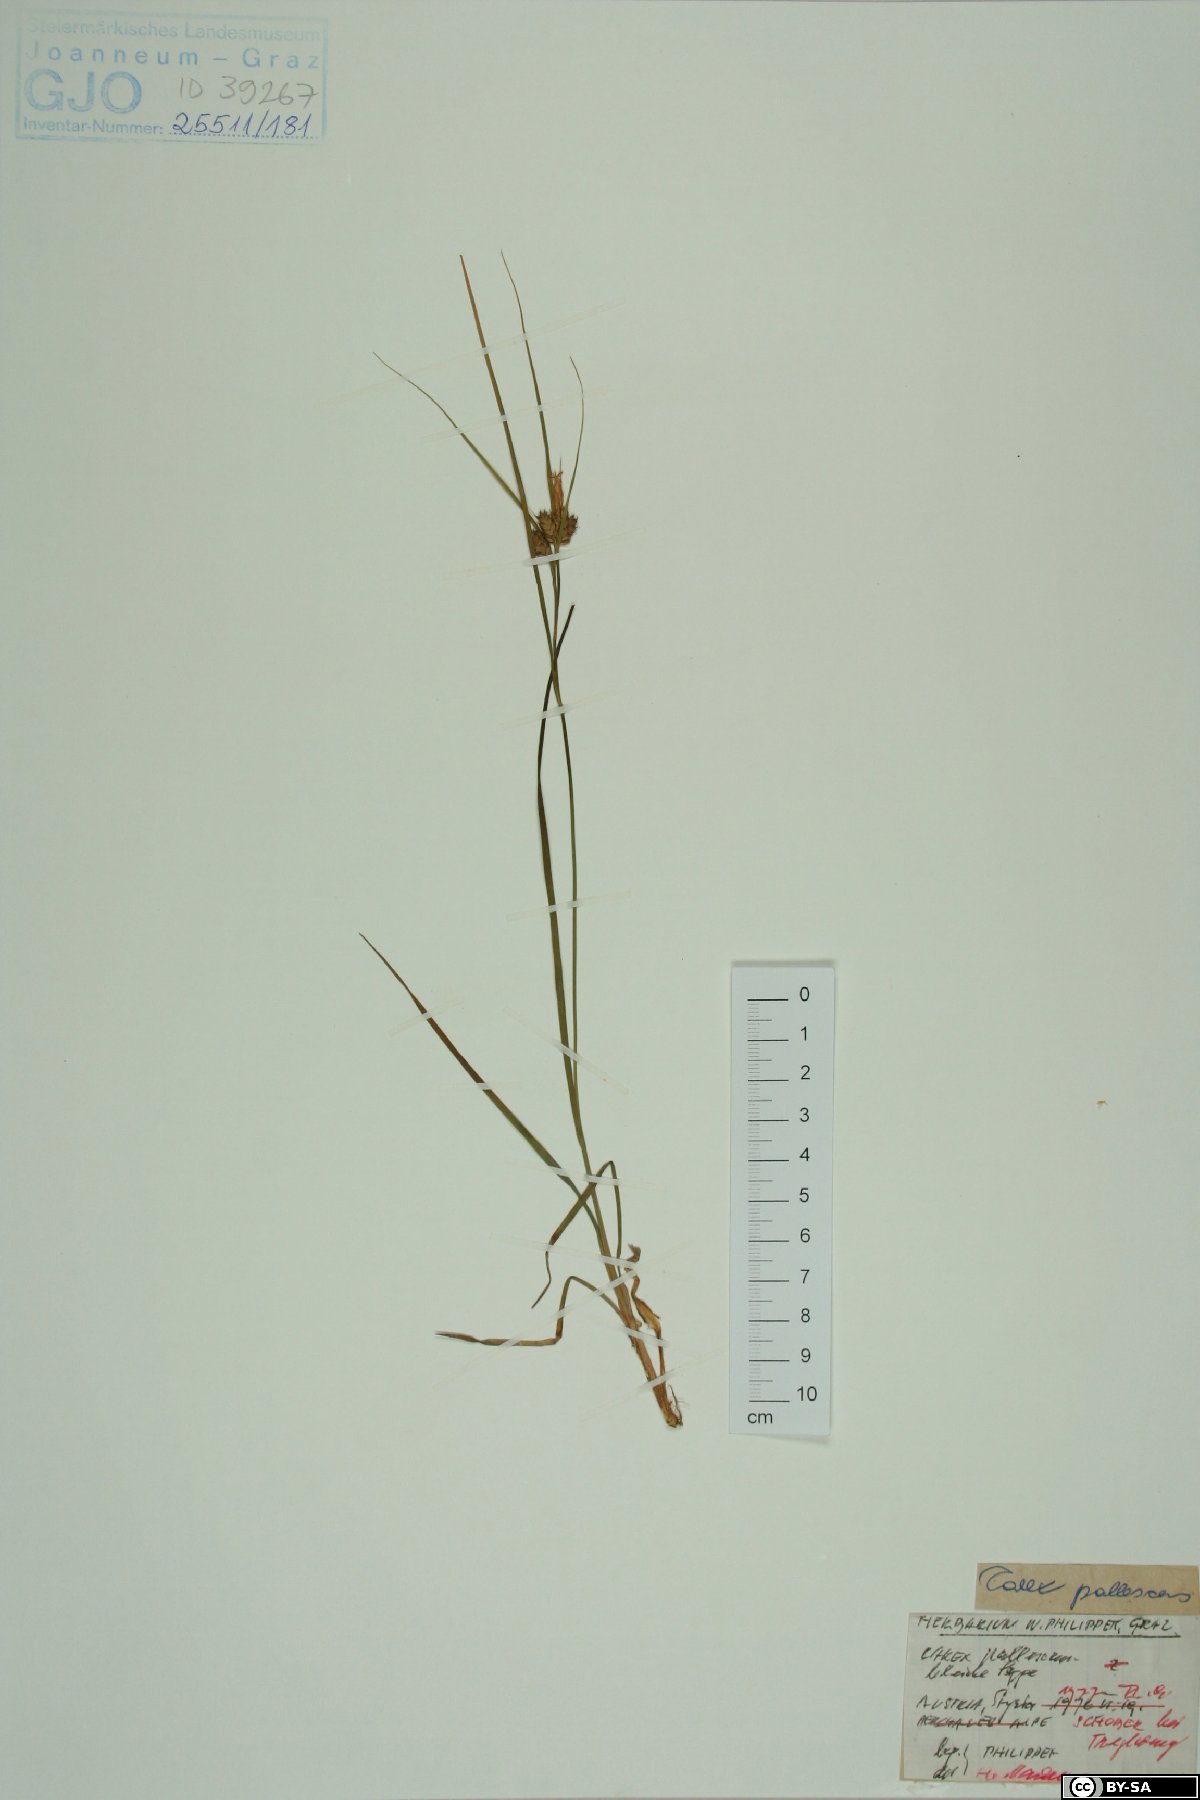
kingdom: Plantae
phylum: Tracheophyta
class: Liliopsida
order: Poales
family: Cyperaceae
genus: Carex
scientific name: Carex pallescens
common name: Pale sedge
